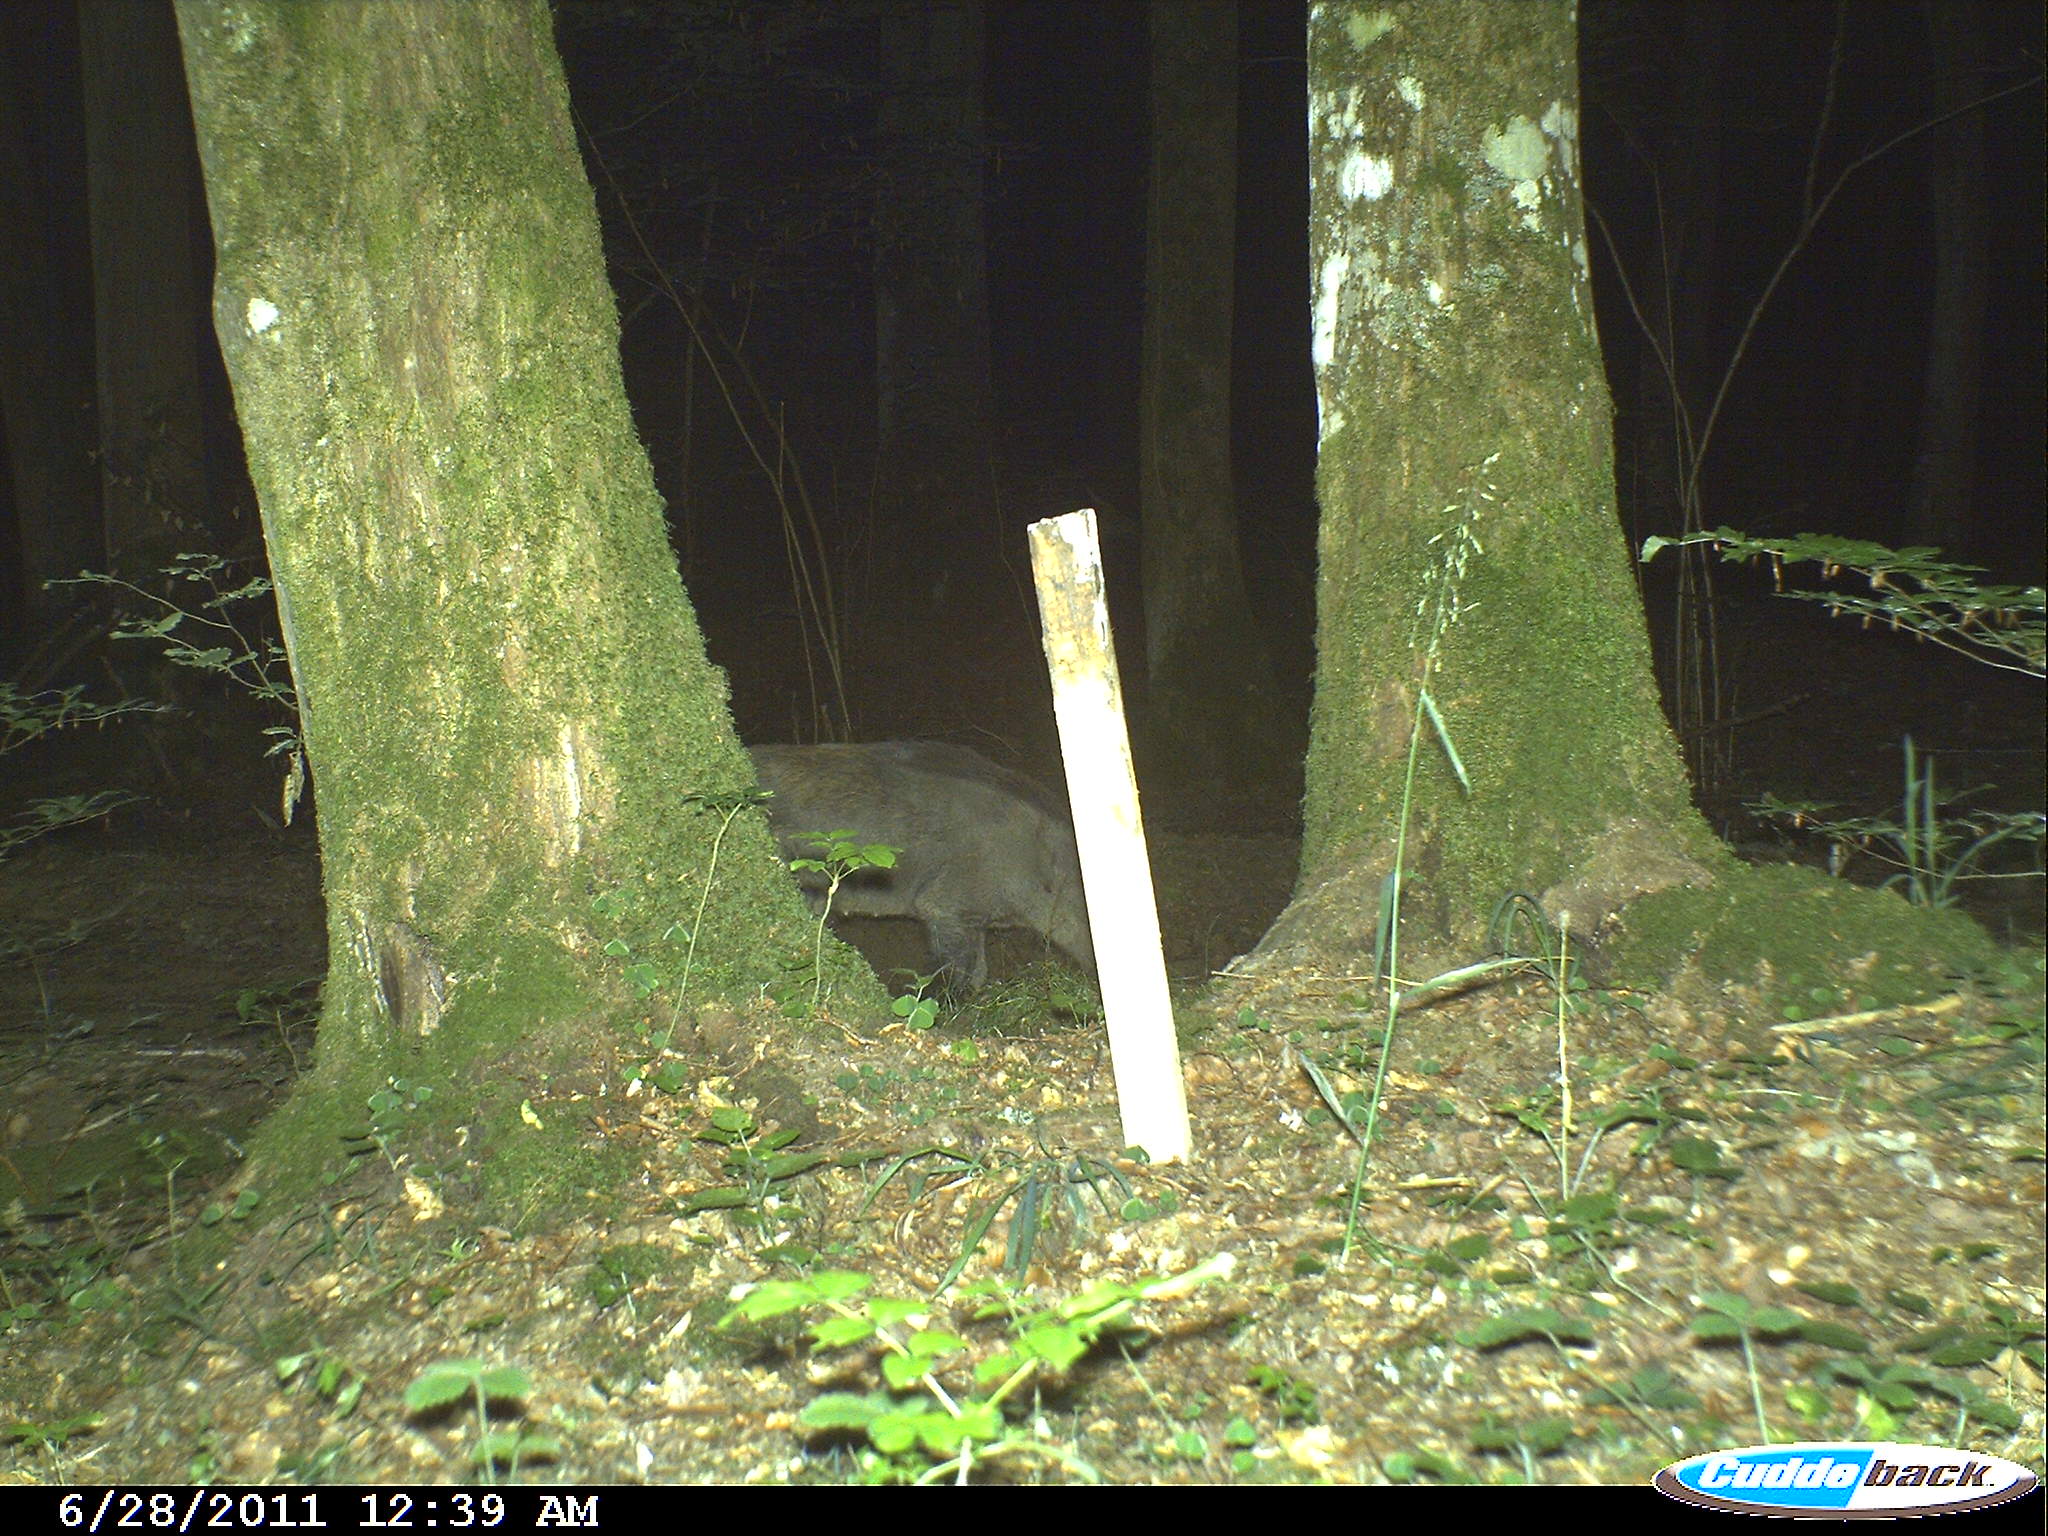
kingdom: Animalia
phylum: Chordata
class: Mammalia
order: Artiodactyla
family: Suidae
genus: Sus
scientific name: Sus scrofa
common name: Wild boar
